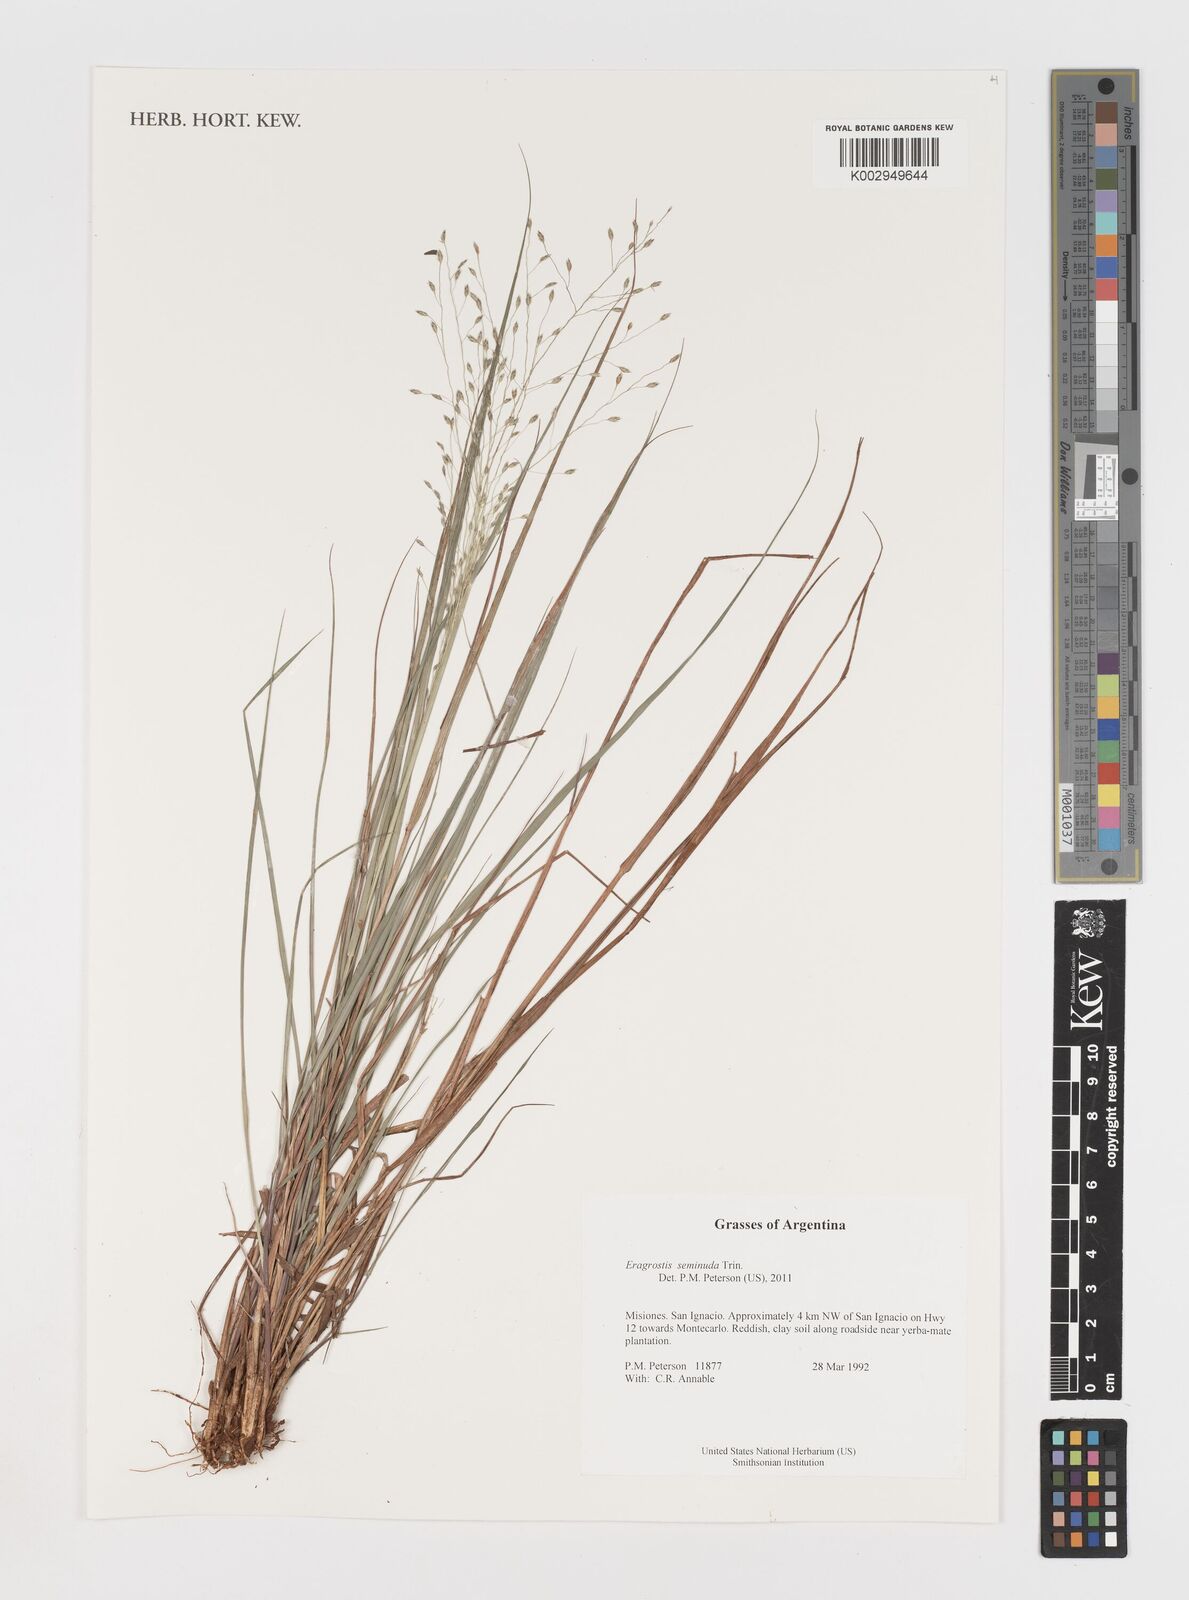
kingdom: Plantae
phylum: Tracheophyta
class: Liliopsida
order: Poales
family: Poaceae
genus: Eragrostis
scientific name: Eragrostis seminuda
